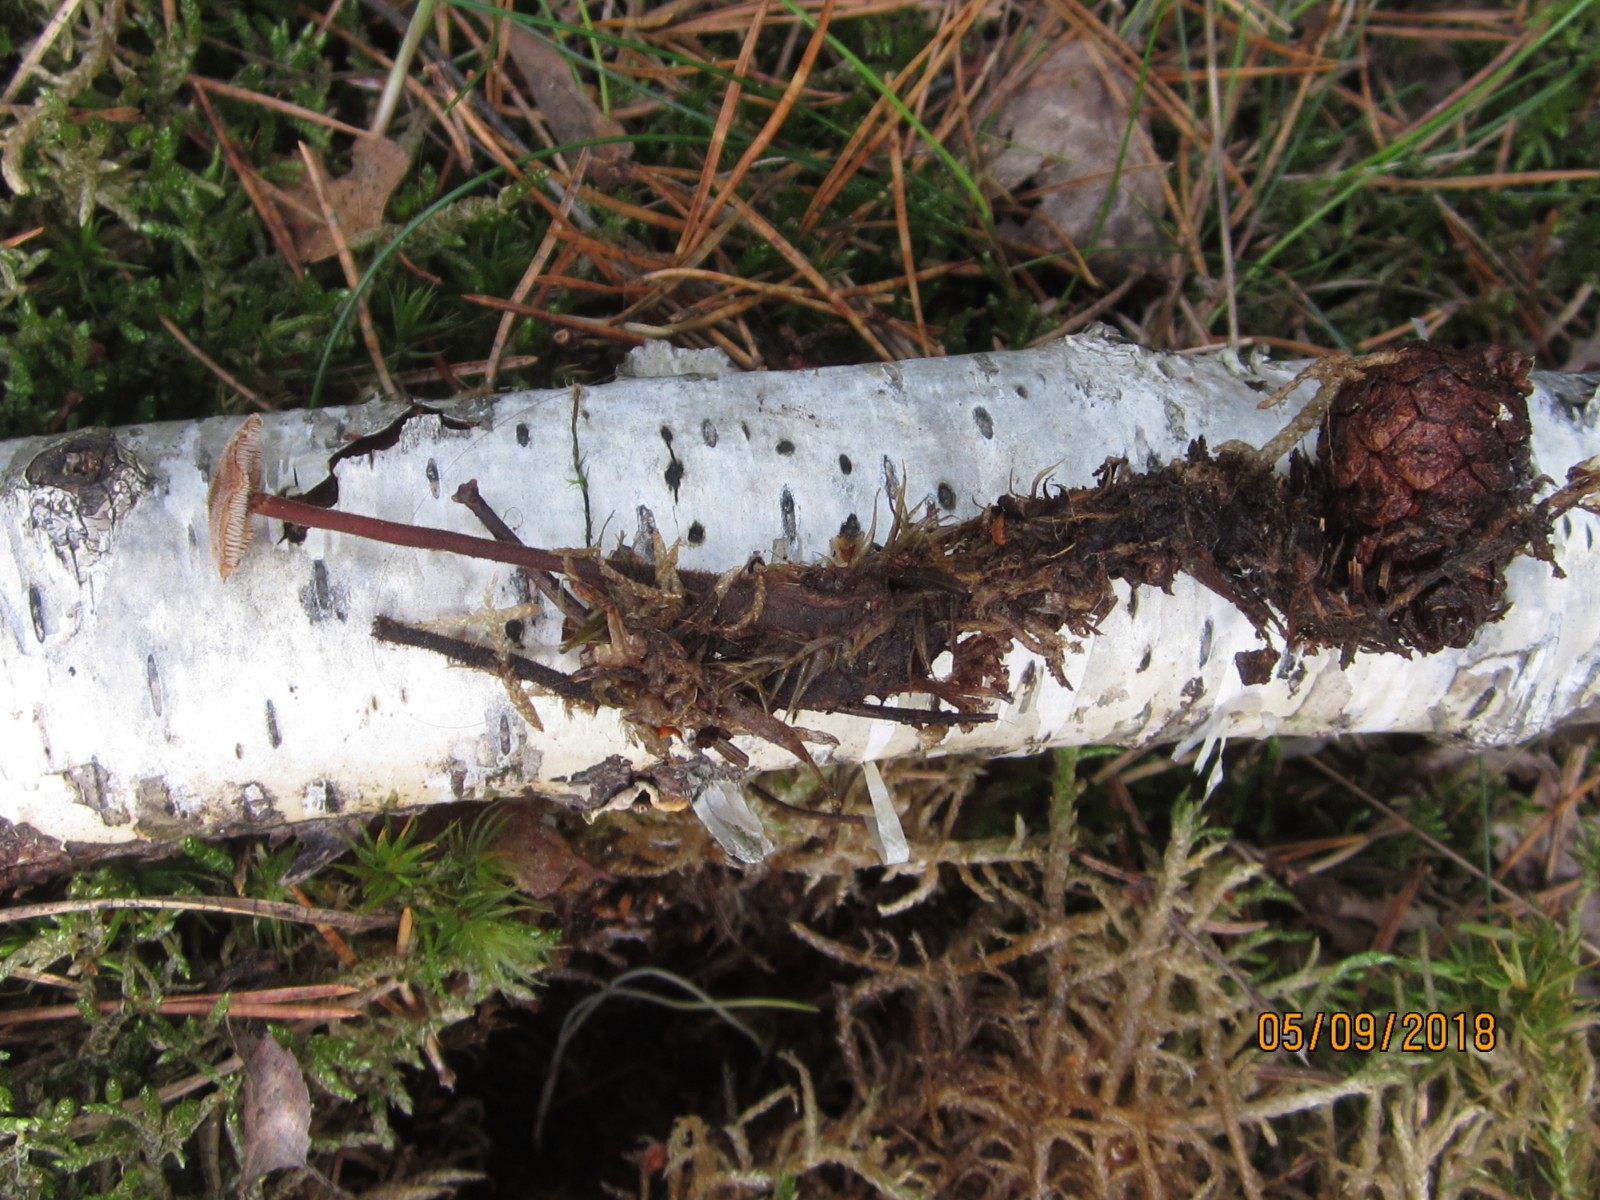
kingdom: Fungi
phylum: Basidiomycota
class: Agaricomycetes
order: Russulales
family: Auriscalpiaceae
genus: Auriscalpium
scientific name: Auriscalpium vulgare
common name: koglepigsvamp
